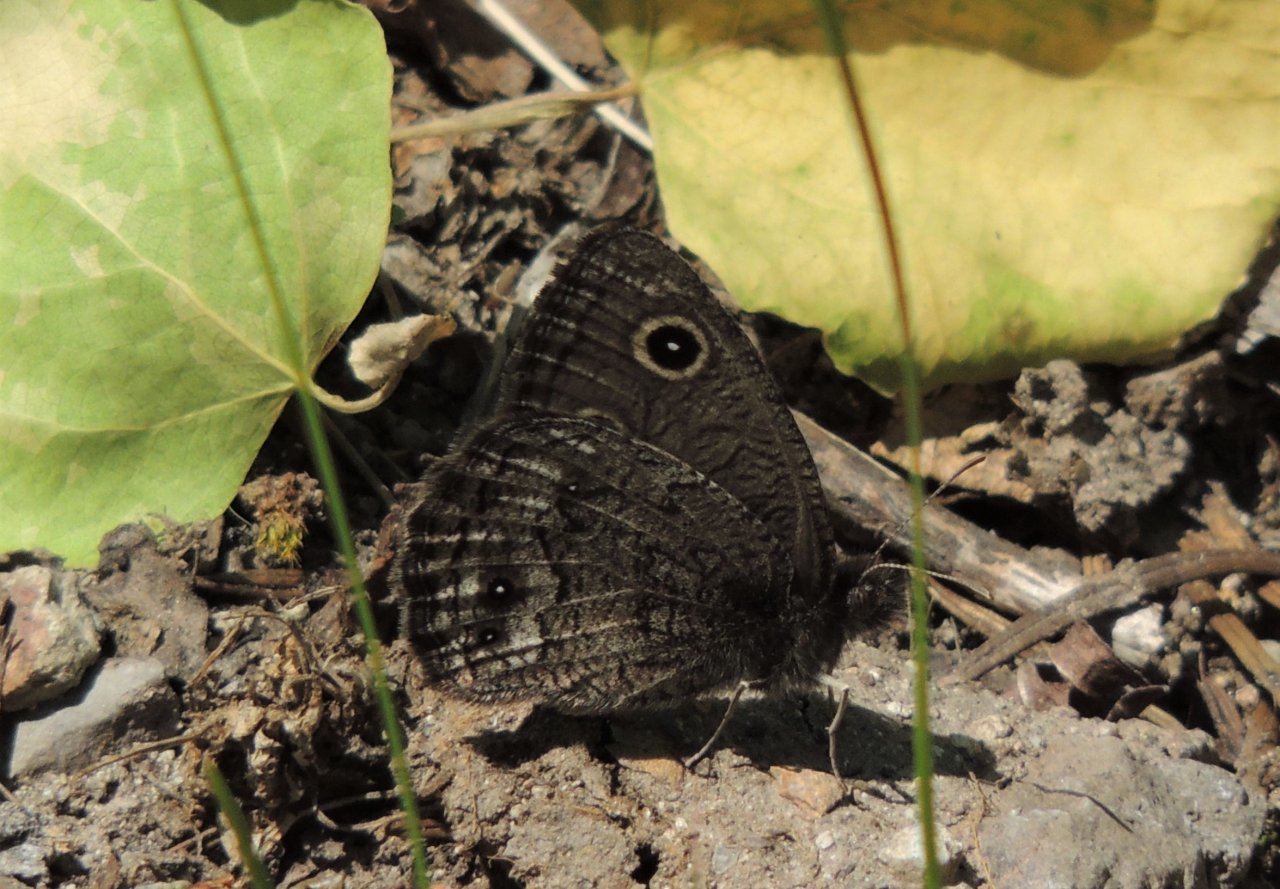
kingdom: Animalia
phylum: Arthropoda
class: Insecta
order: Lepidoptera
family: Nymphalidae
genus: Cercyonis
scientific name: Cercyonis sthenele
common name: Great Basin Wood-Nymph
